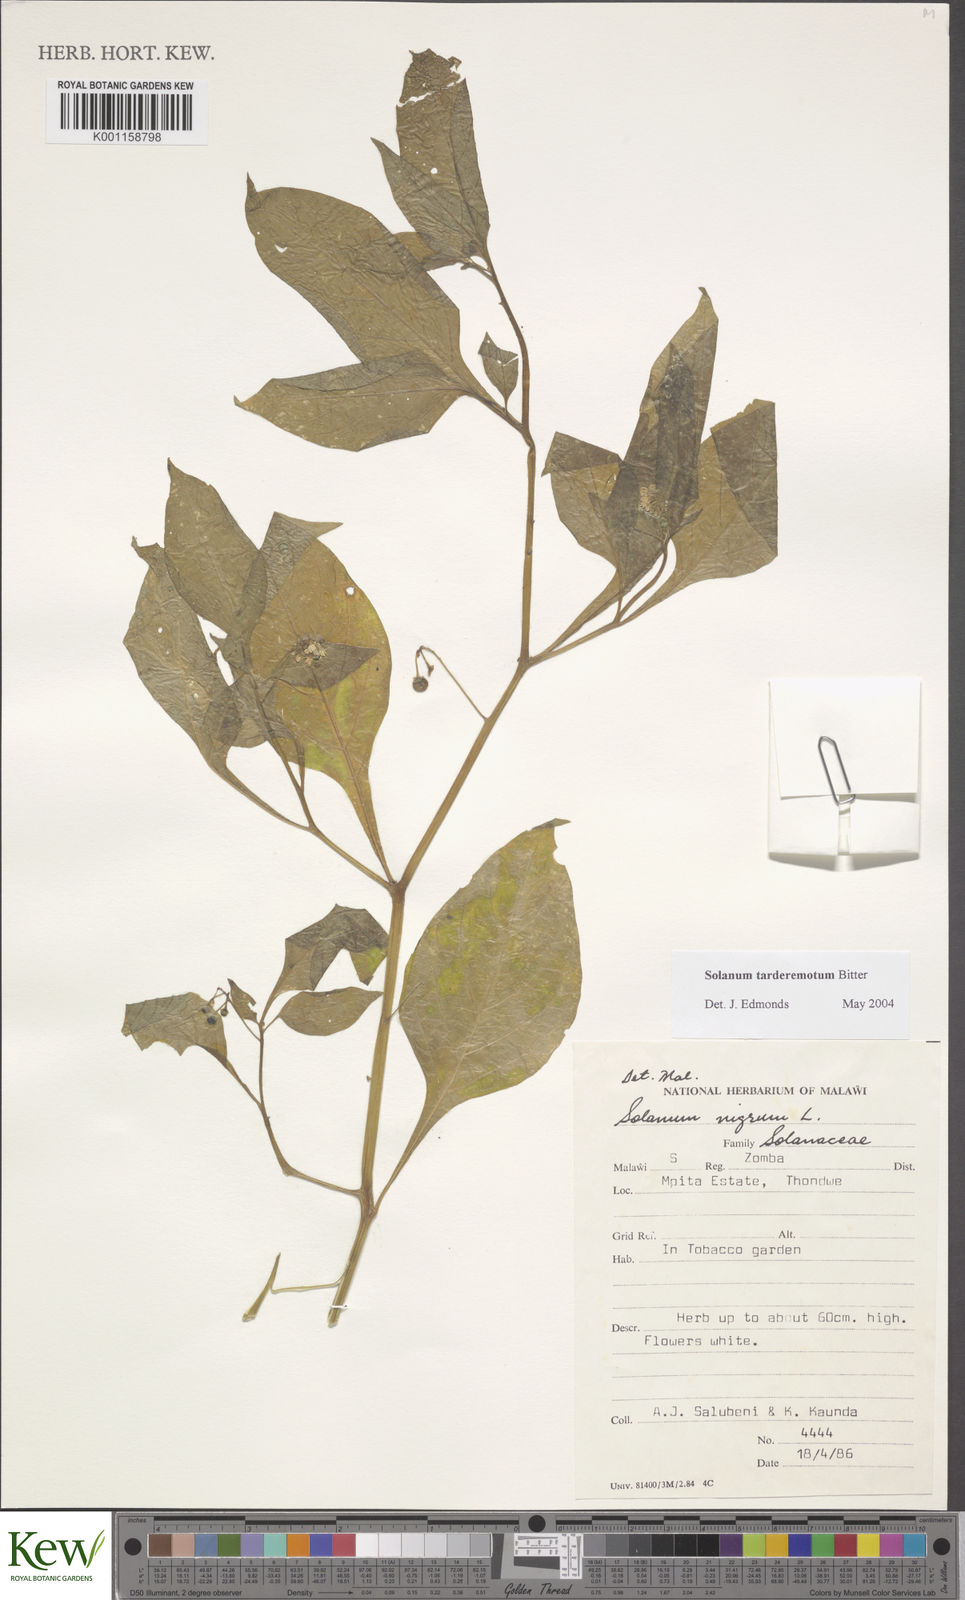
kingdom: Plantae
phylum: Tracheophyta
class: Magnoliopsida
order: Solanales
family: Solanaceae
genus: Solanum
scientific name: Solanum tarderemotum
